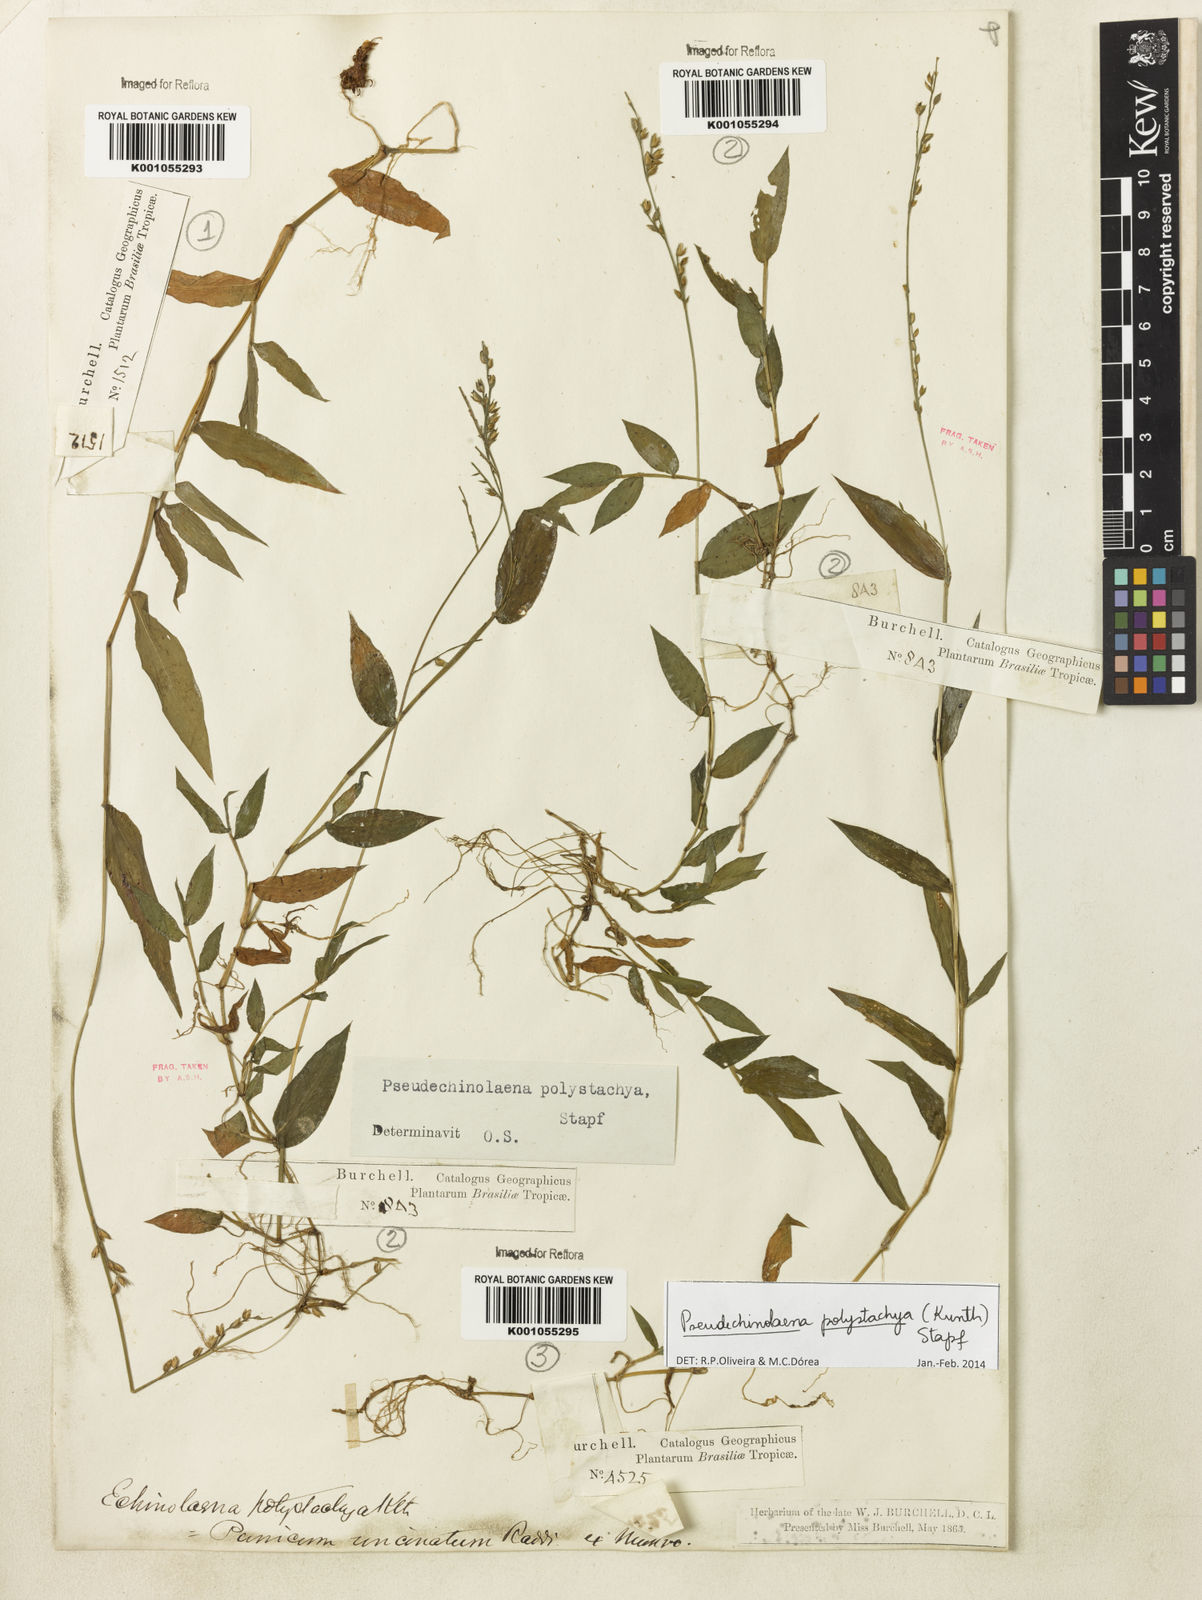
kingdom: Plantae
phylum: Tracheophyta
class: Liliopsida
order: Poales
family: Poaceae
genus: Pseudechinolaena
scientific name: Pseudechinolaena polystachya
